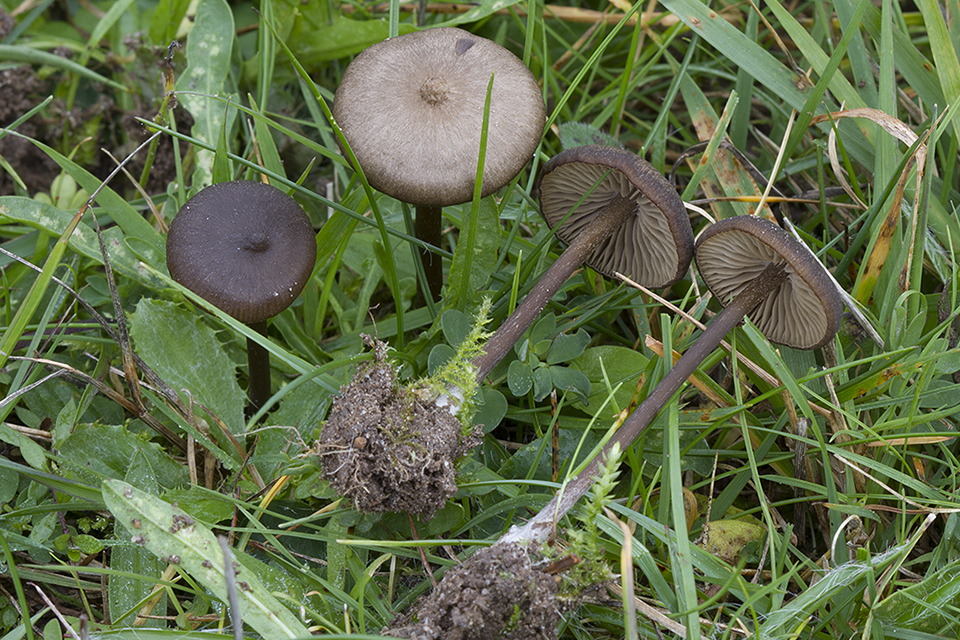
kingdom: Fungi
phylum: Basidiomycota
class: Agaricomycetes
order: Agaricales
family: Entolomataceae
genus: Entoloma
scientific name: Entoloma clandestinum
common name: tykbladet rødblad
